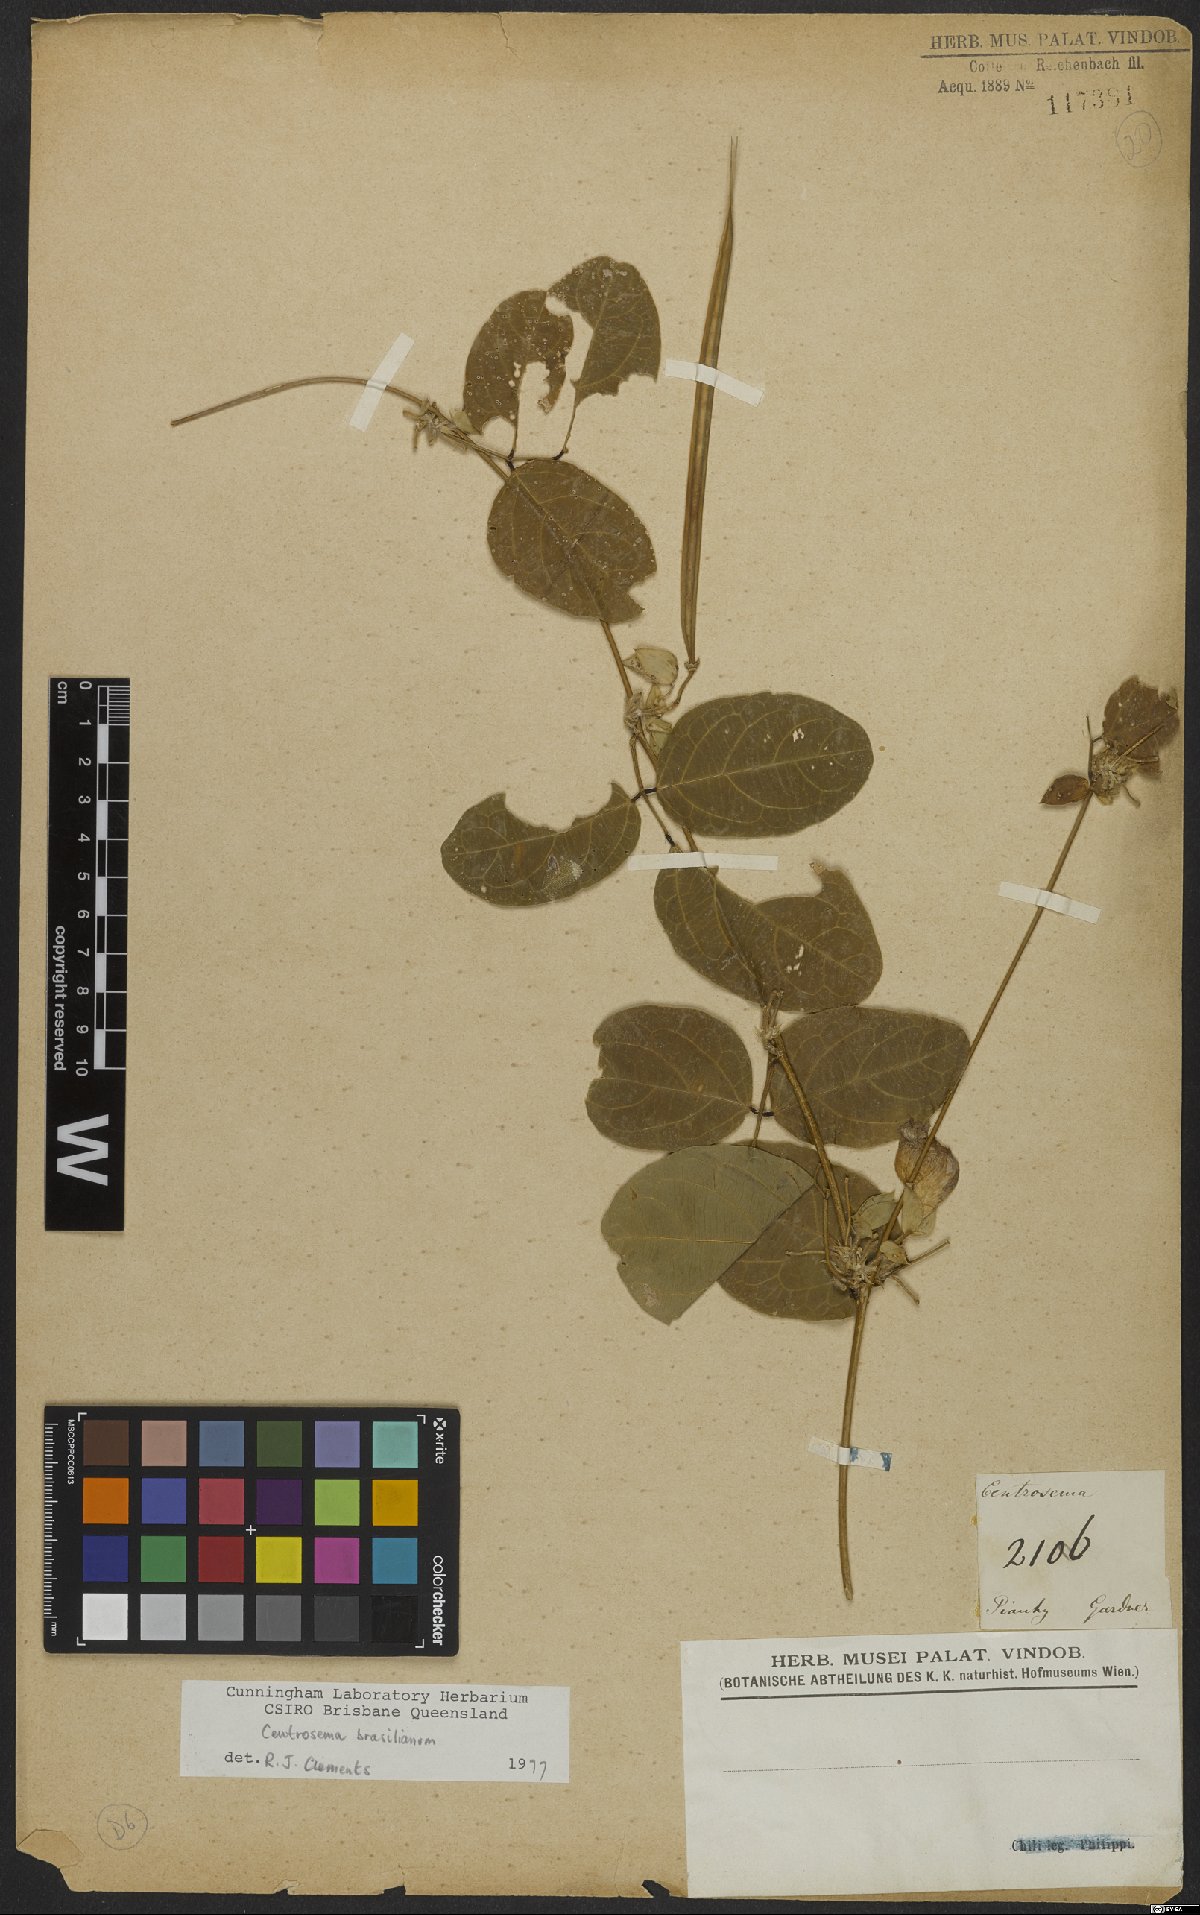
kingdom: Plantae
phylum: Tracheophyta
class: Magnoliopsida
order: Fabales
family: Fabaceae
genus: Centrosema
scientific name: Centrosema brasilianum
